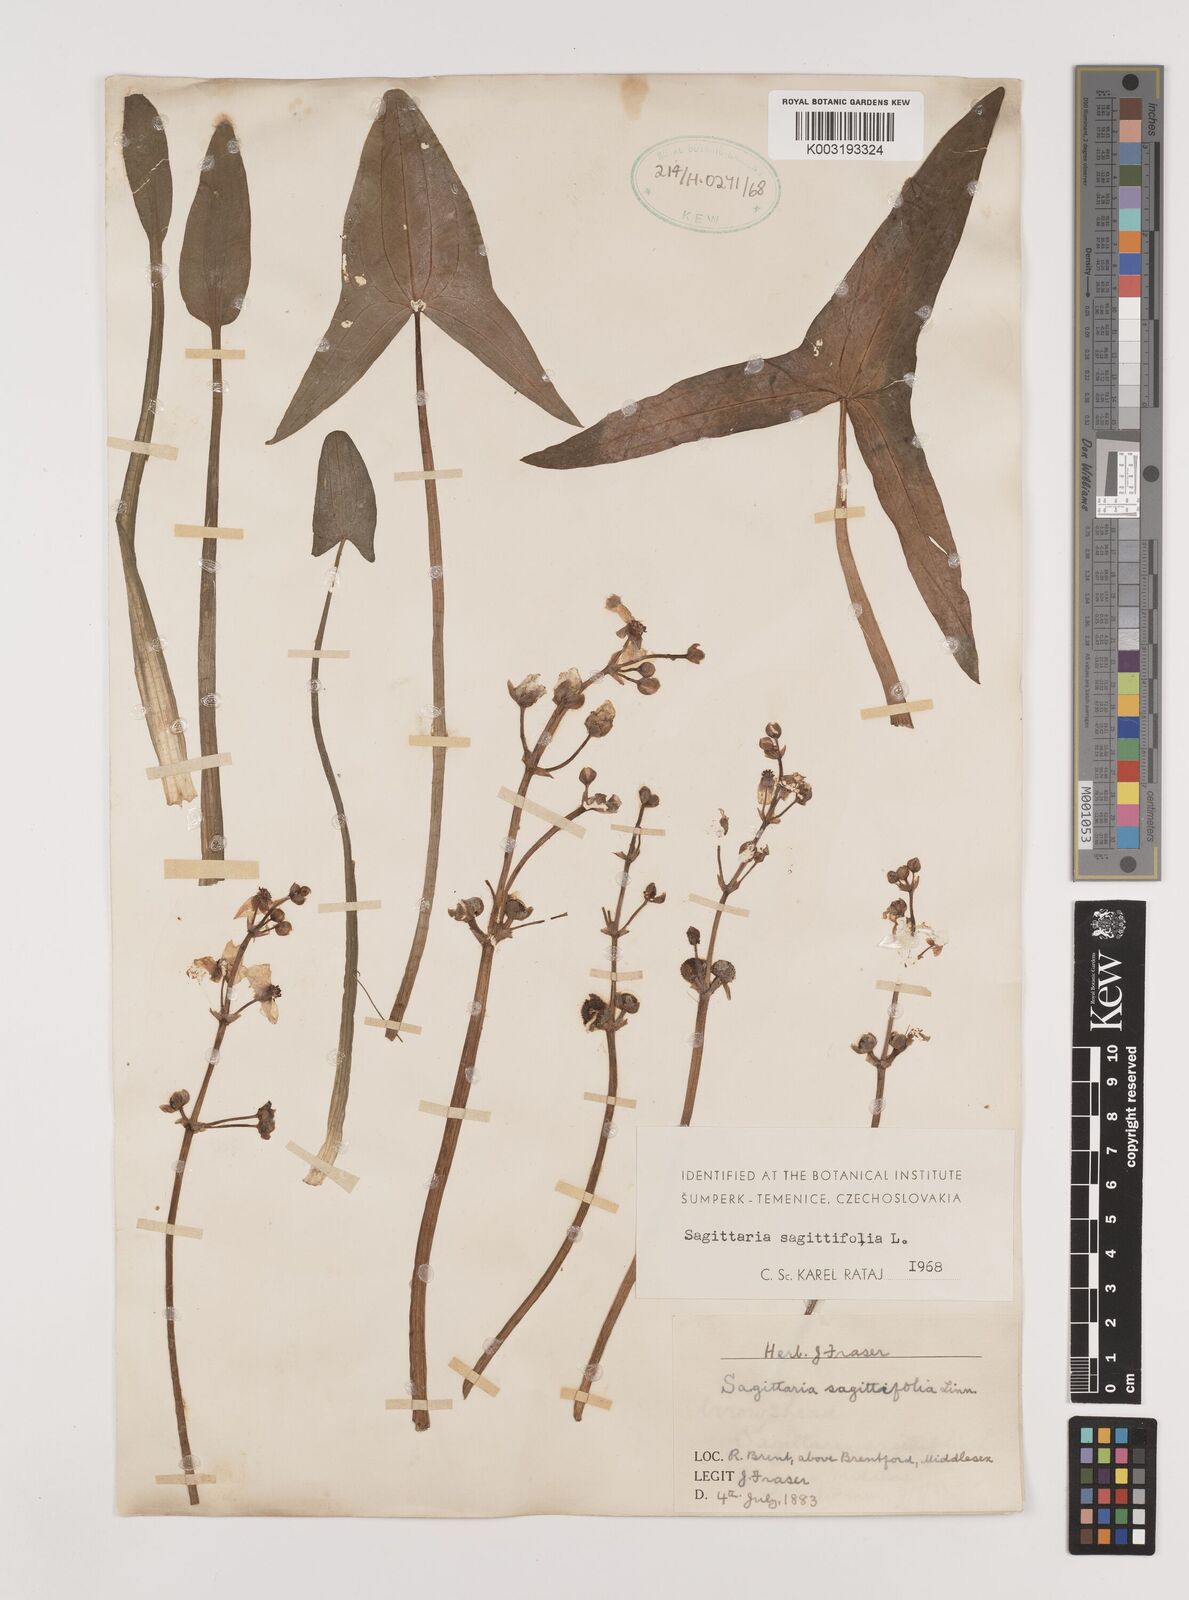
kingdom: Plantae
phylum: Tracheophyta
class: Liliopsida
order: Alismatales
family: Alismataceae
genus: Sagittaria
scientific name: Sagittaria sagittifolia
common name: Arrowhead
